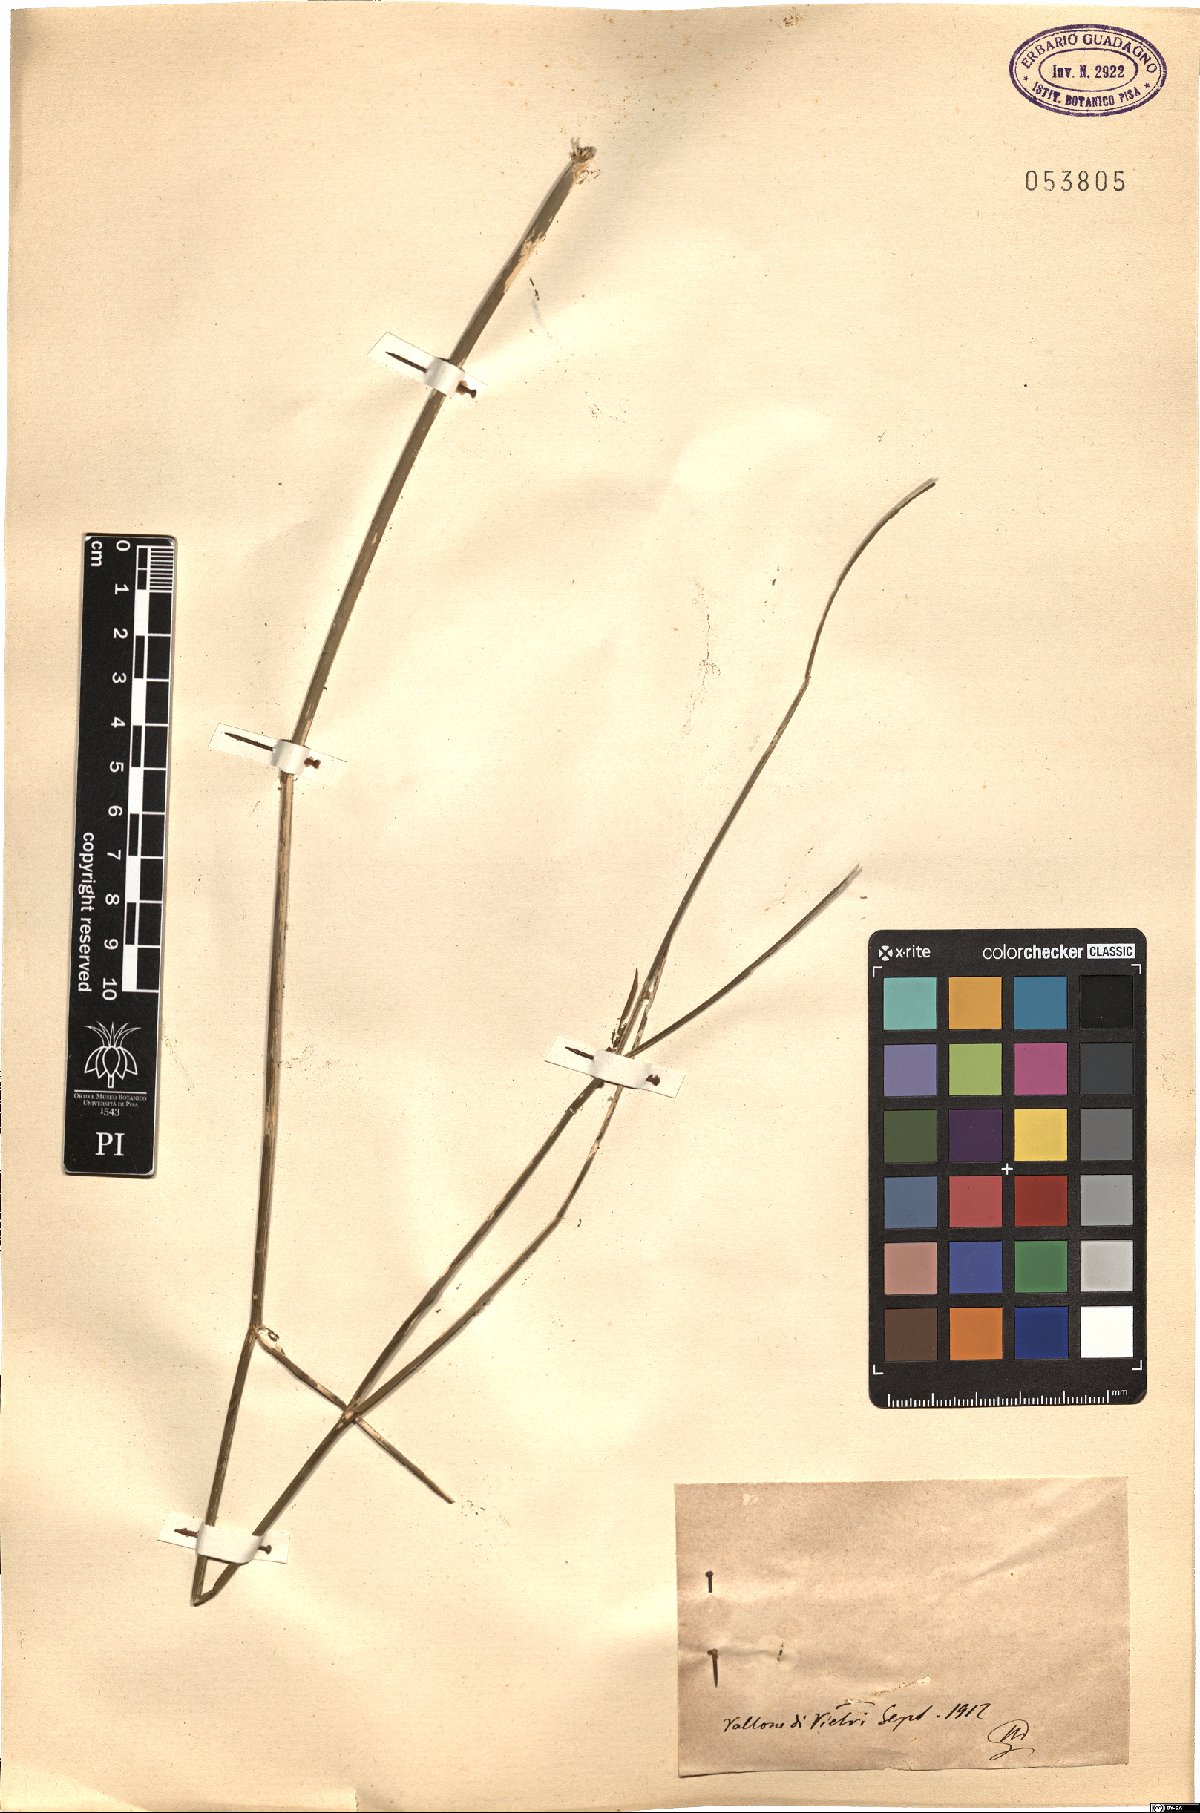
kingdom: Plantae
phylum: Tracheophyta
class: Magnoliopsida
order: Apiales
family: Apiaceae
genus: Foeniculum
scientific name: Foeniculum
